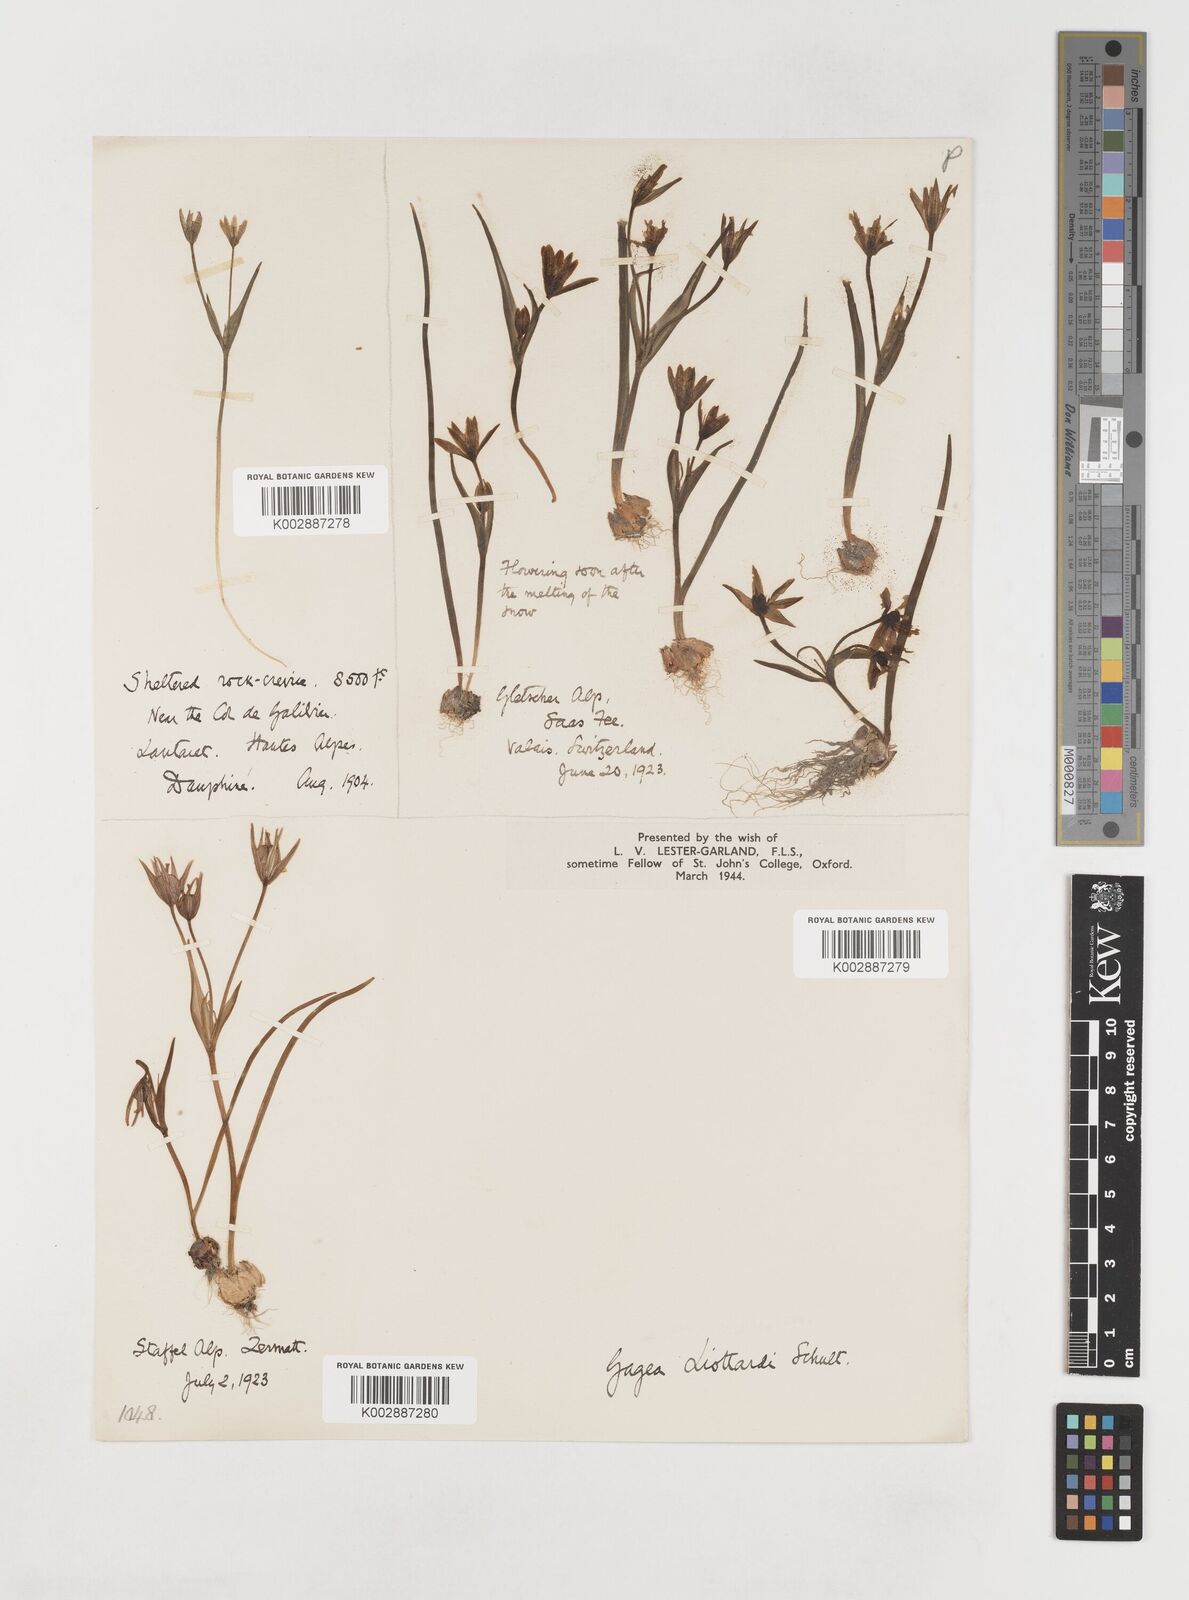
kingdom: Plantae
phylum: Tracheophyta
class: Liliopsida
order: Liliales
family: Liliaceae
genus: Gagea
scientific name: Gagea bohemica
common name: Early star-of-bethlehem
